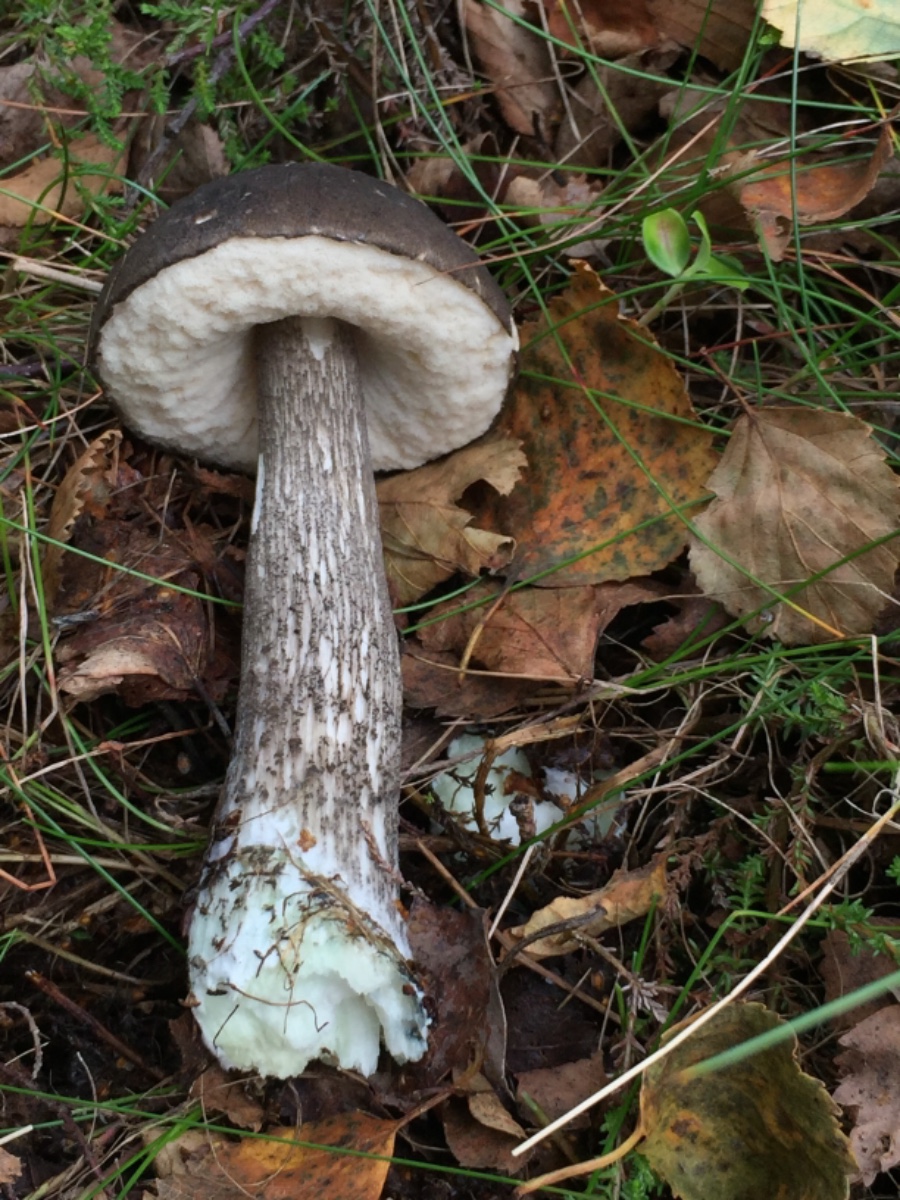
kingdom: Fungi
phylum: Basidiomycota
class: Agaricomycetes
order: Boletales
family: Boletaceae
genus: Leccinum
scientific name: Leccinum variicolor
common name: flammet skælrørhat
